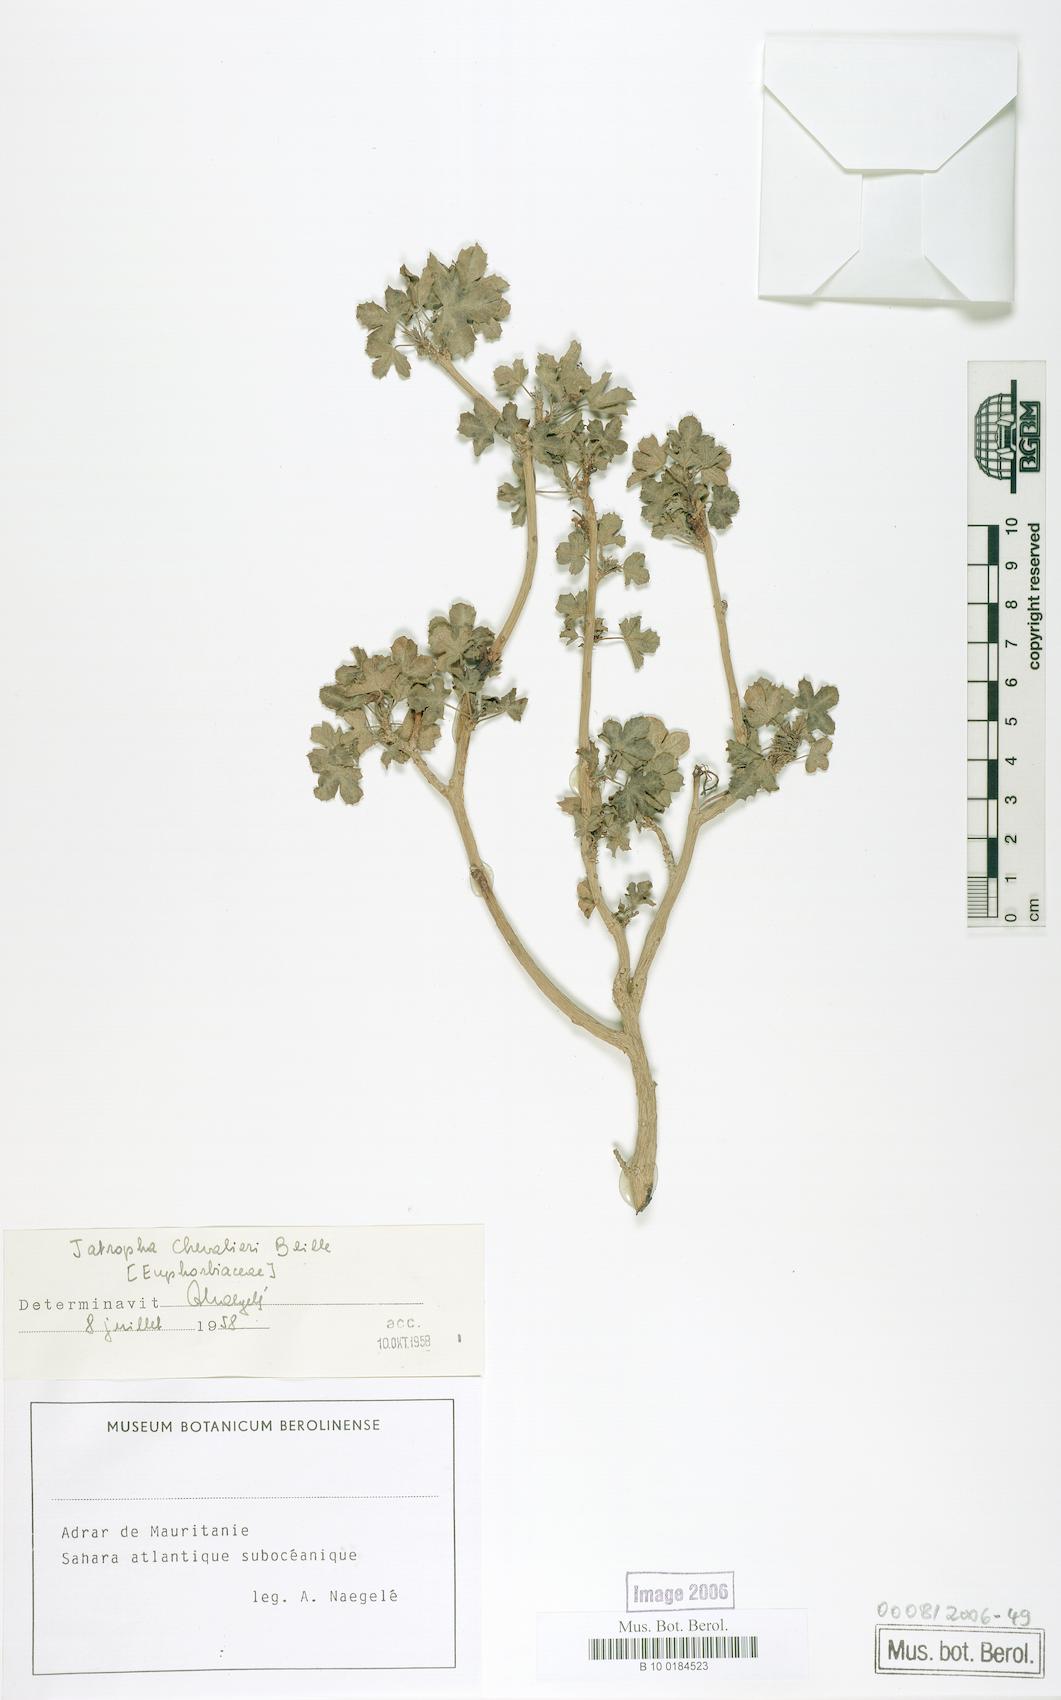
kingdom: Plantae
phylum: Tracheophyta
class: Magnoliopsida
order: Malpighiales
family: Euphorbiaceae
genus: Jatropha
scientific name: Jatropha chevalieri
